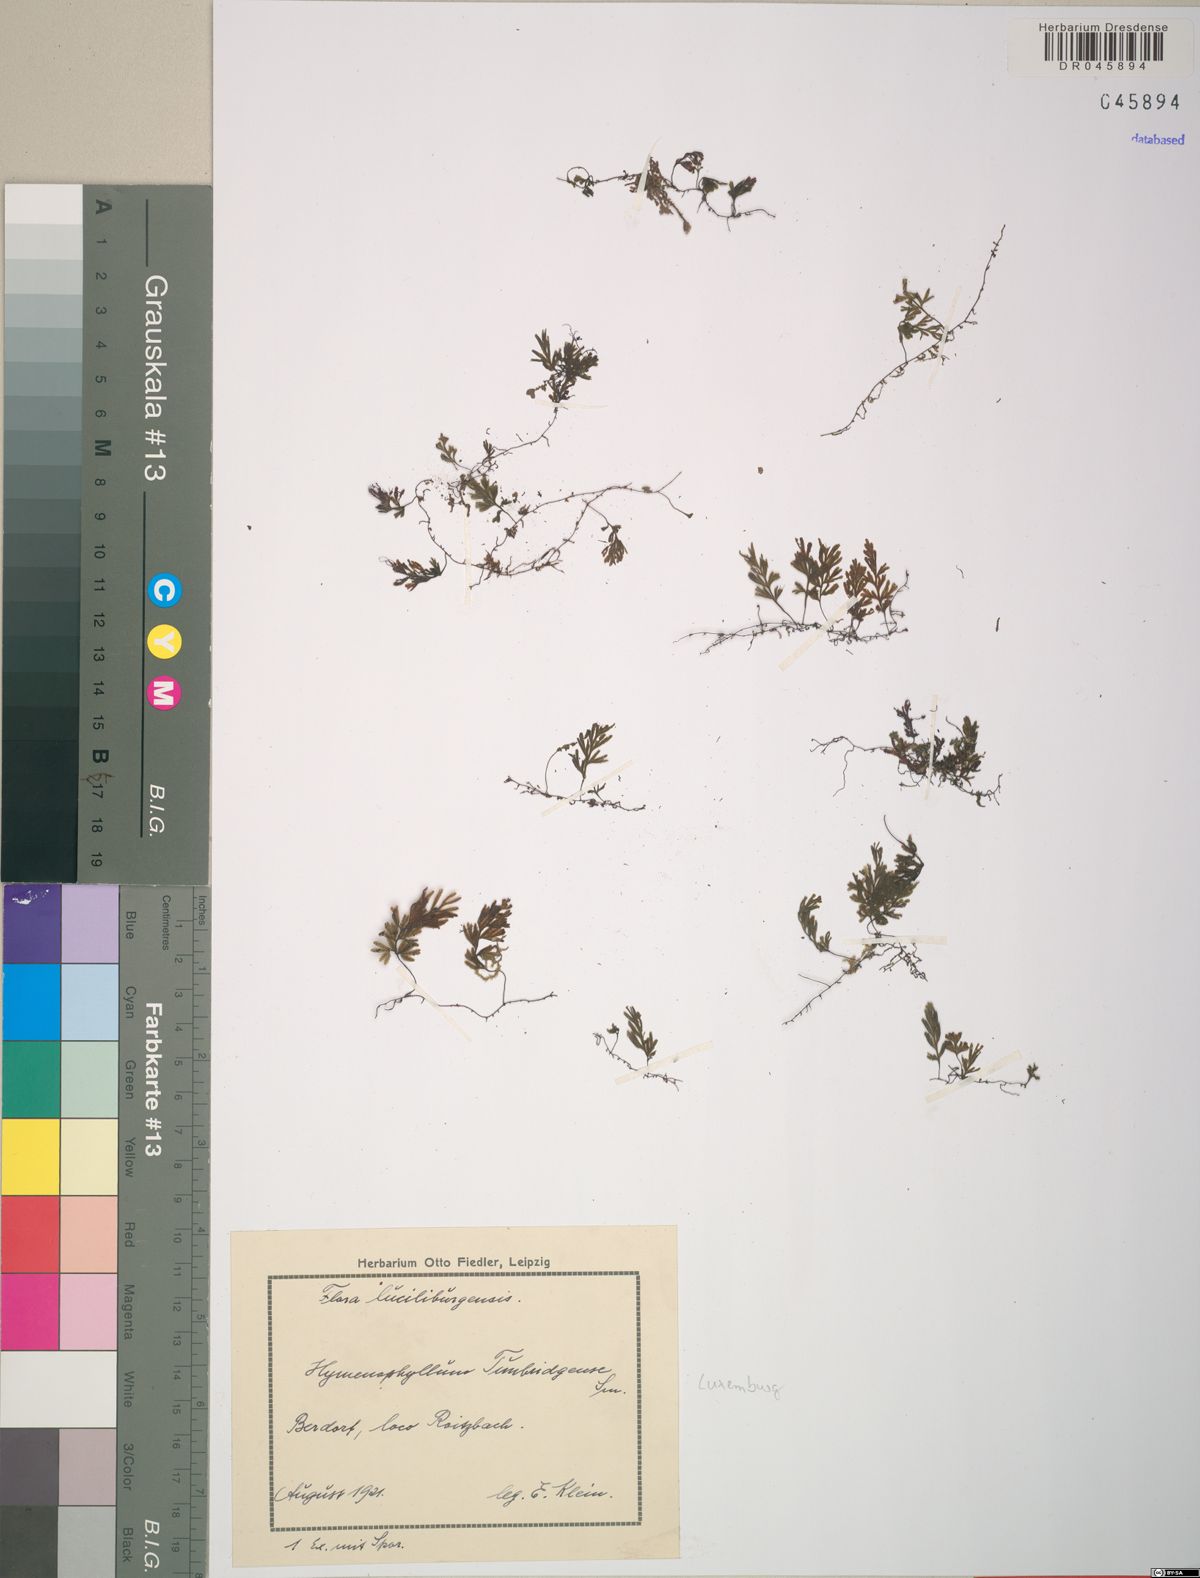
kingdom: Plantae
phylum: Tracheophyta
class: Polypodiopsida
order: Hymenophyllales
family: Hymenophyllaceae
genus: Hymenophyllum
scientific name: Hymenophyllum tunbrigense
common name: Tunbridge filmy fern
